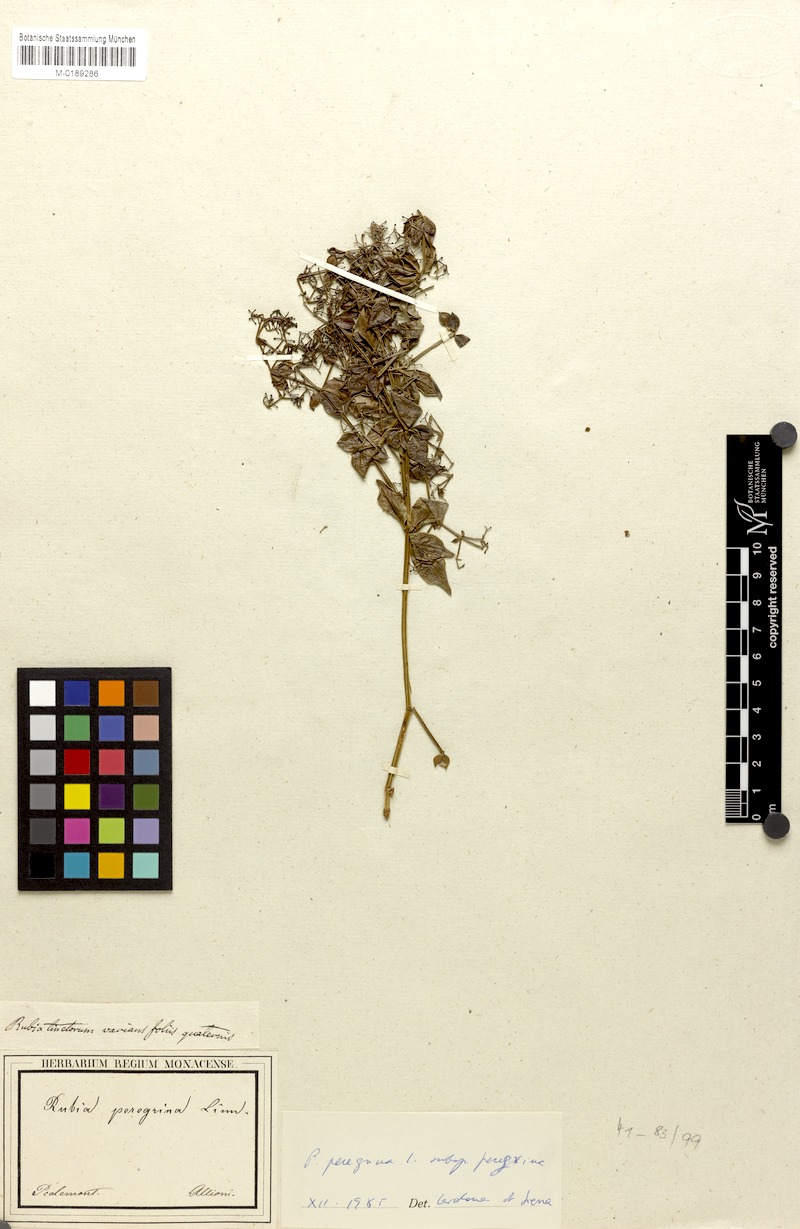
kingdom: Plantae
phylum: Tracheophyta
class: Magnoliopsida
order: Gentianales
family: Rubiaceae
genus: Rubia
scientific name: Rubia peregrina
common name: Wild madder
